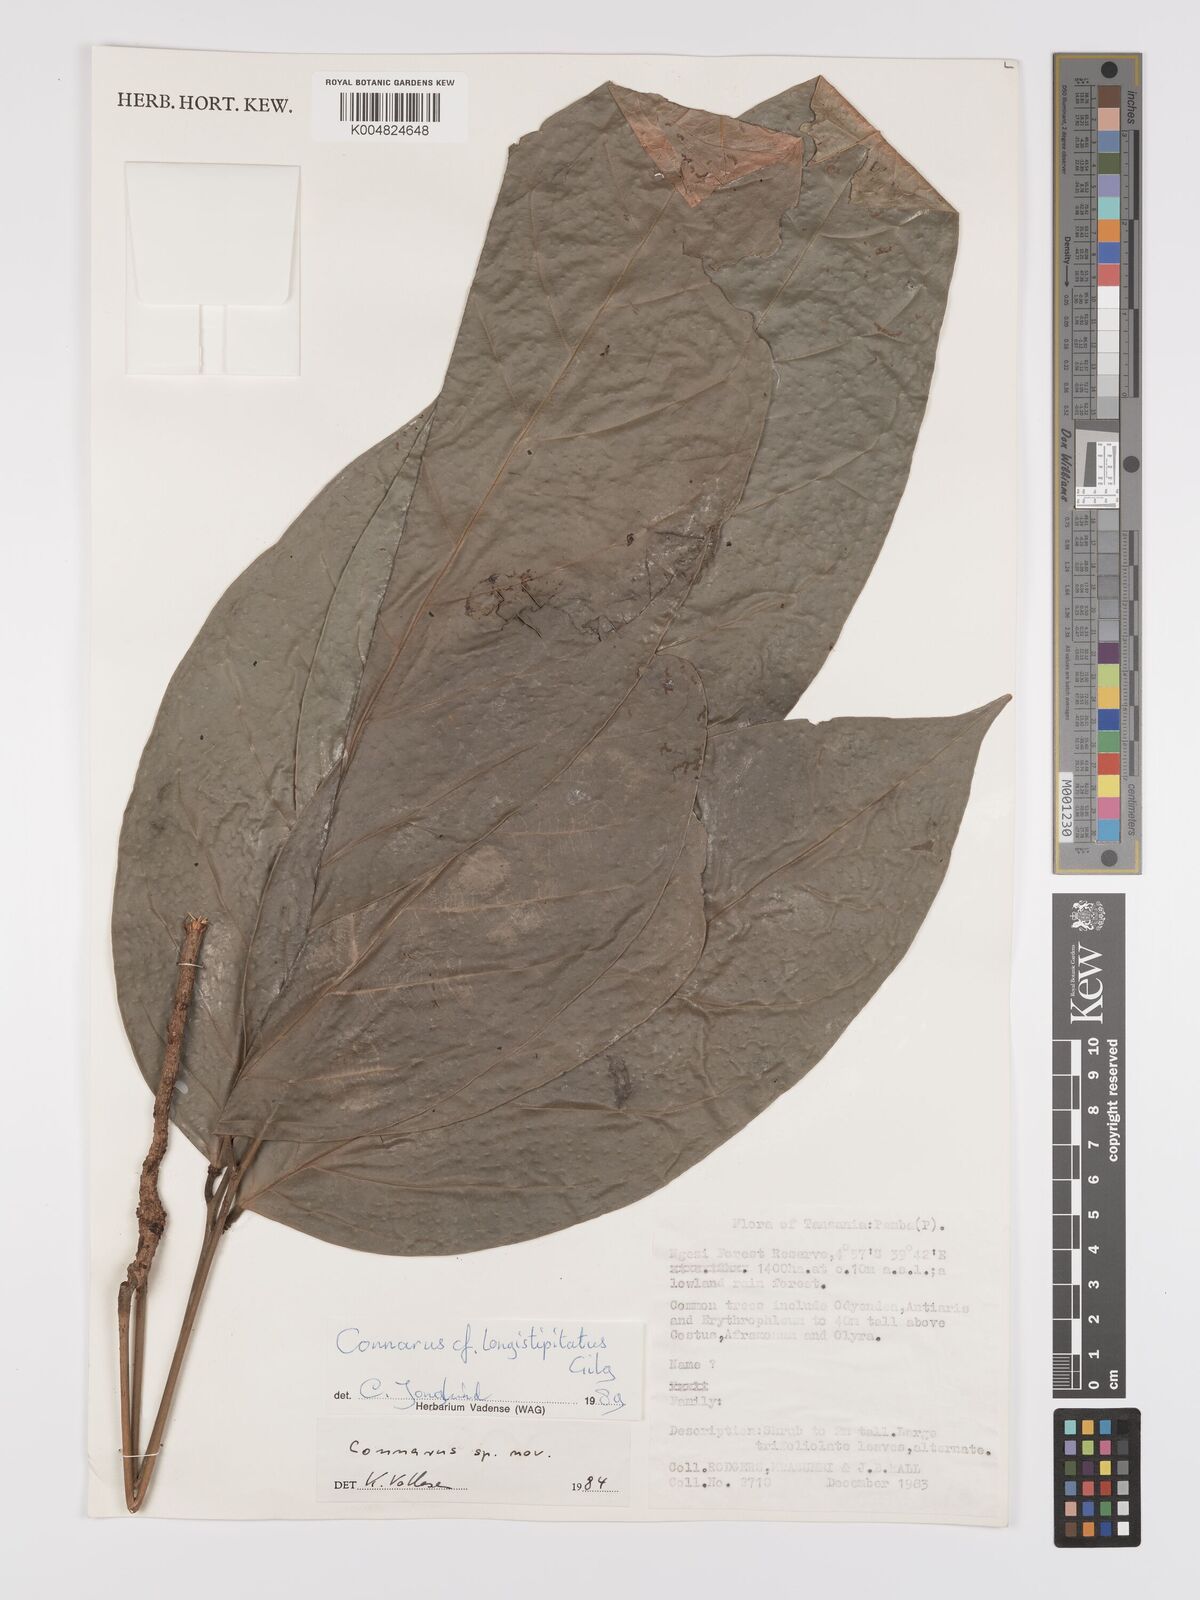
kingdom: Plantae
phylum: Tracheophyta
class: Magnoliopsida
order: Oxalidales
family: Connaraceae
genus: Connarus
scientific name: Connarus
